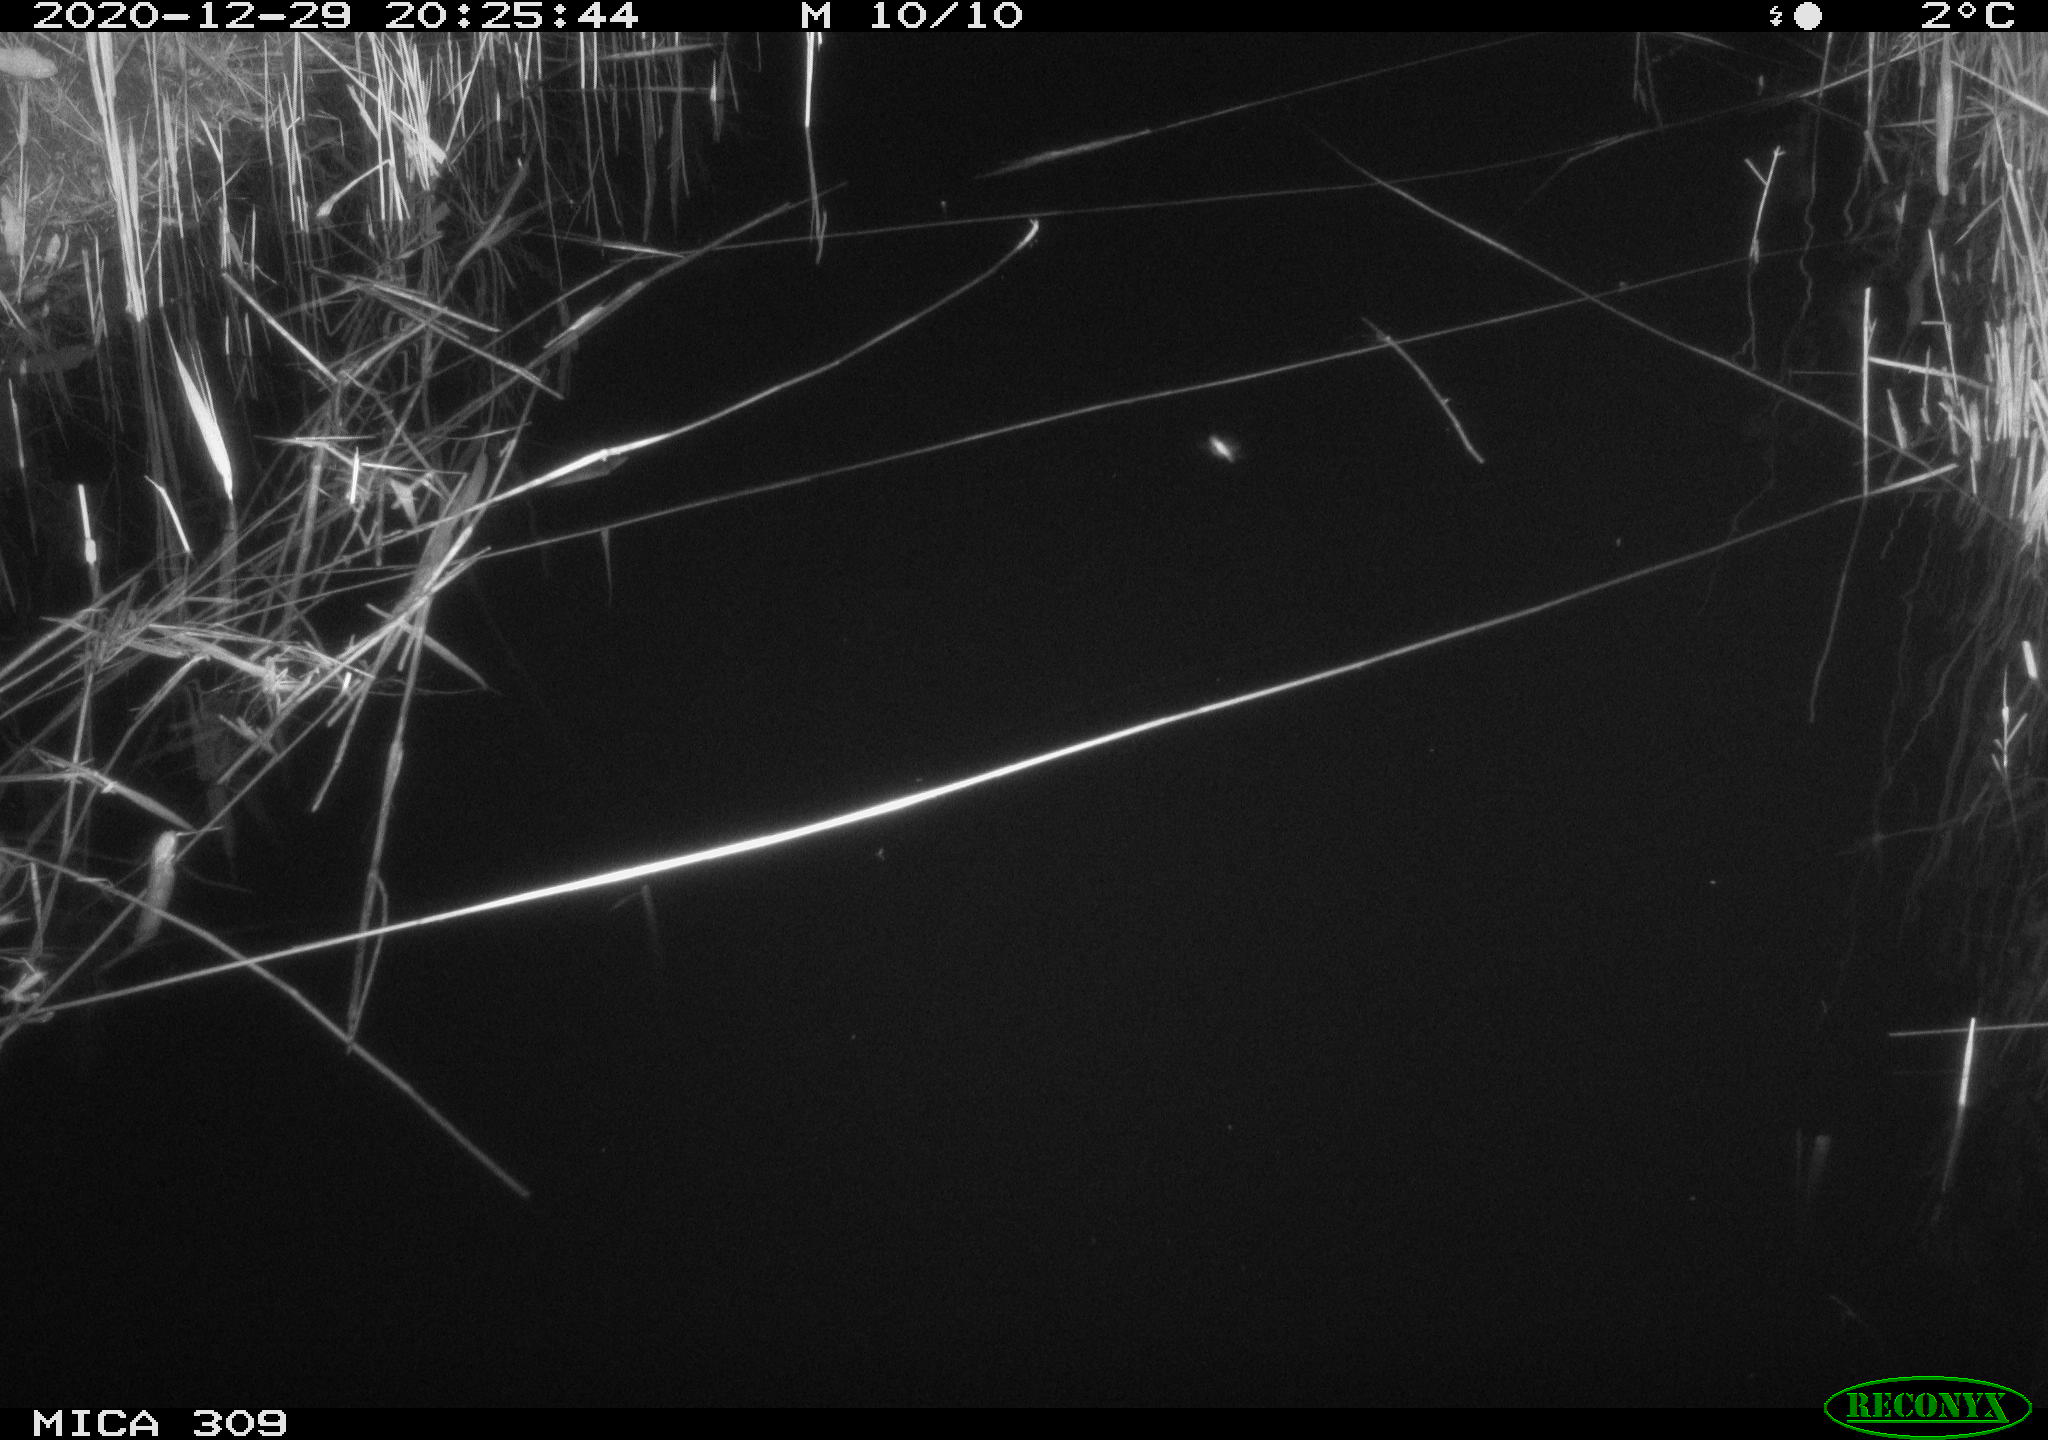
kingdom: Animalia
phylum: Chordata
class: Mammalia
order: Rodentia
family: Muridae
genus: Rattus
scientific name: Rattus norvegicus
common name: Brown rat
